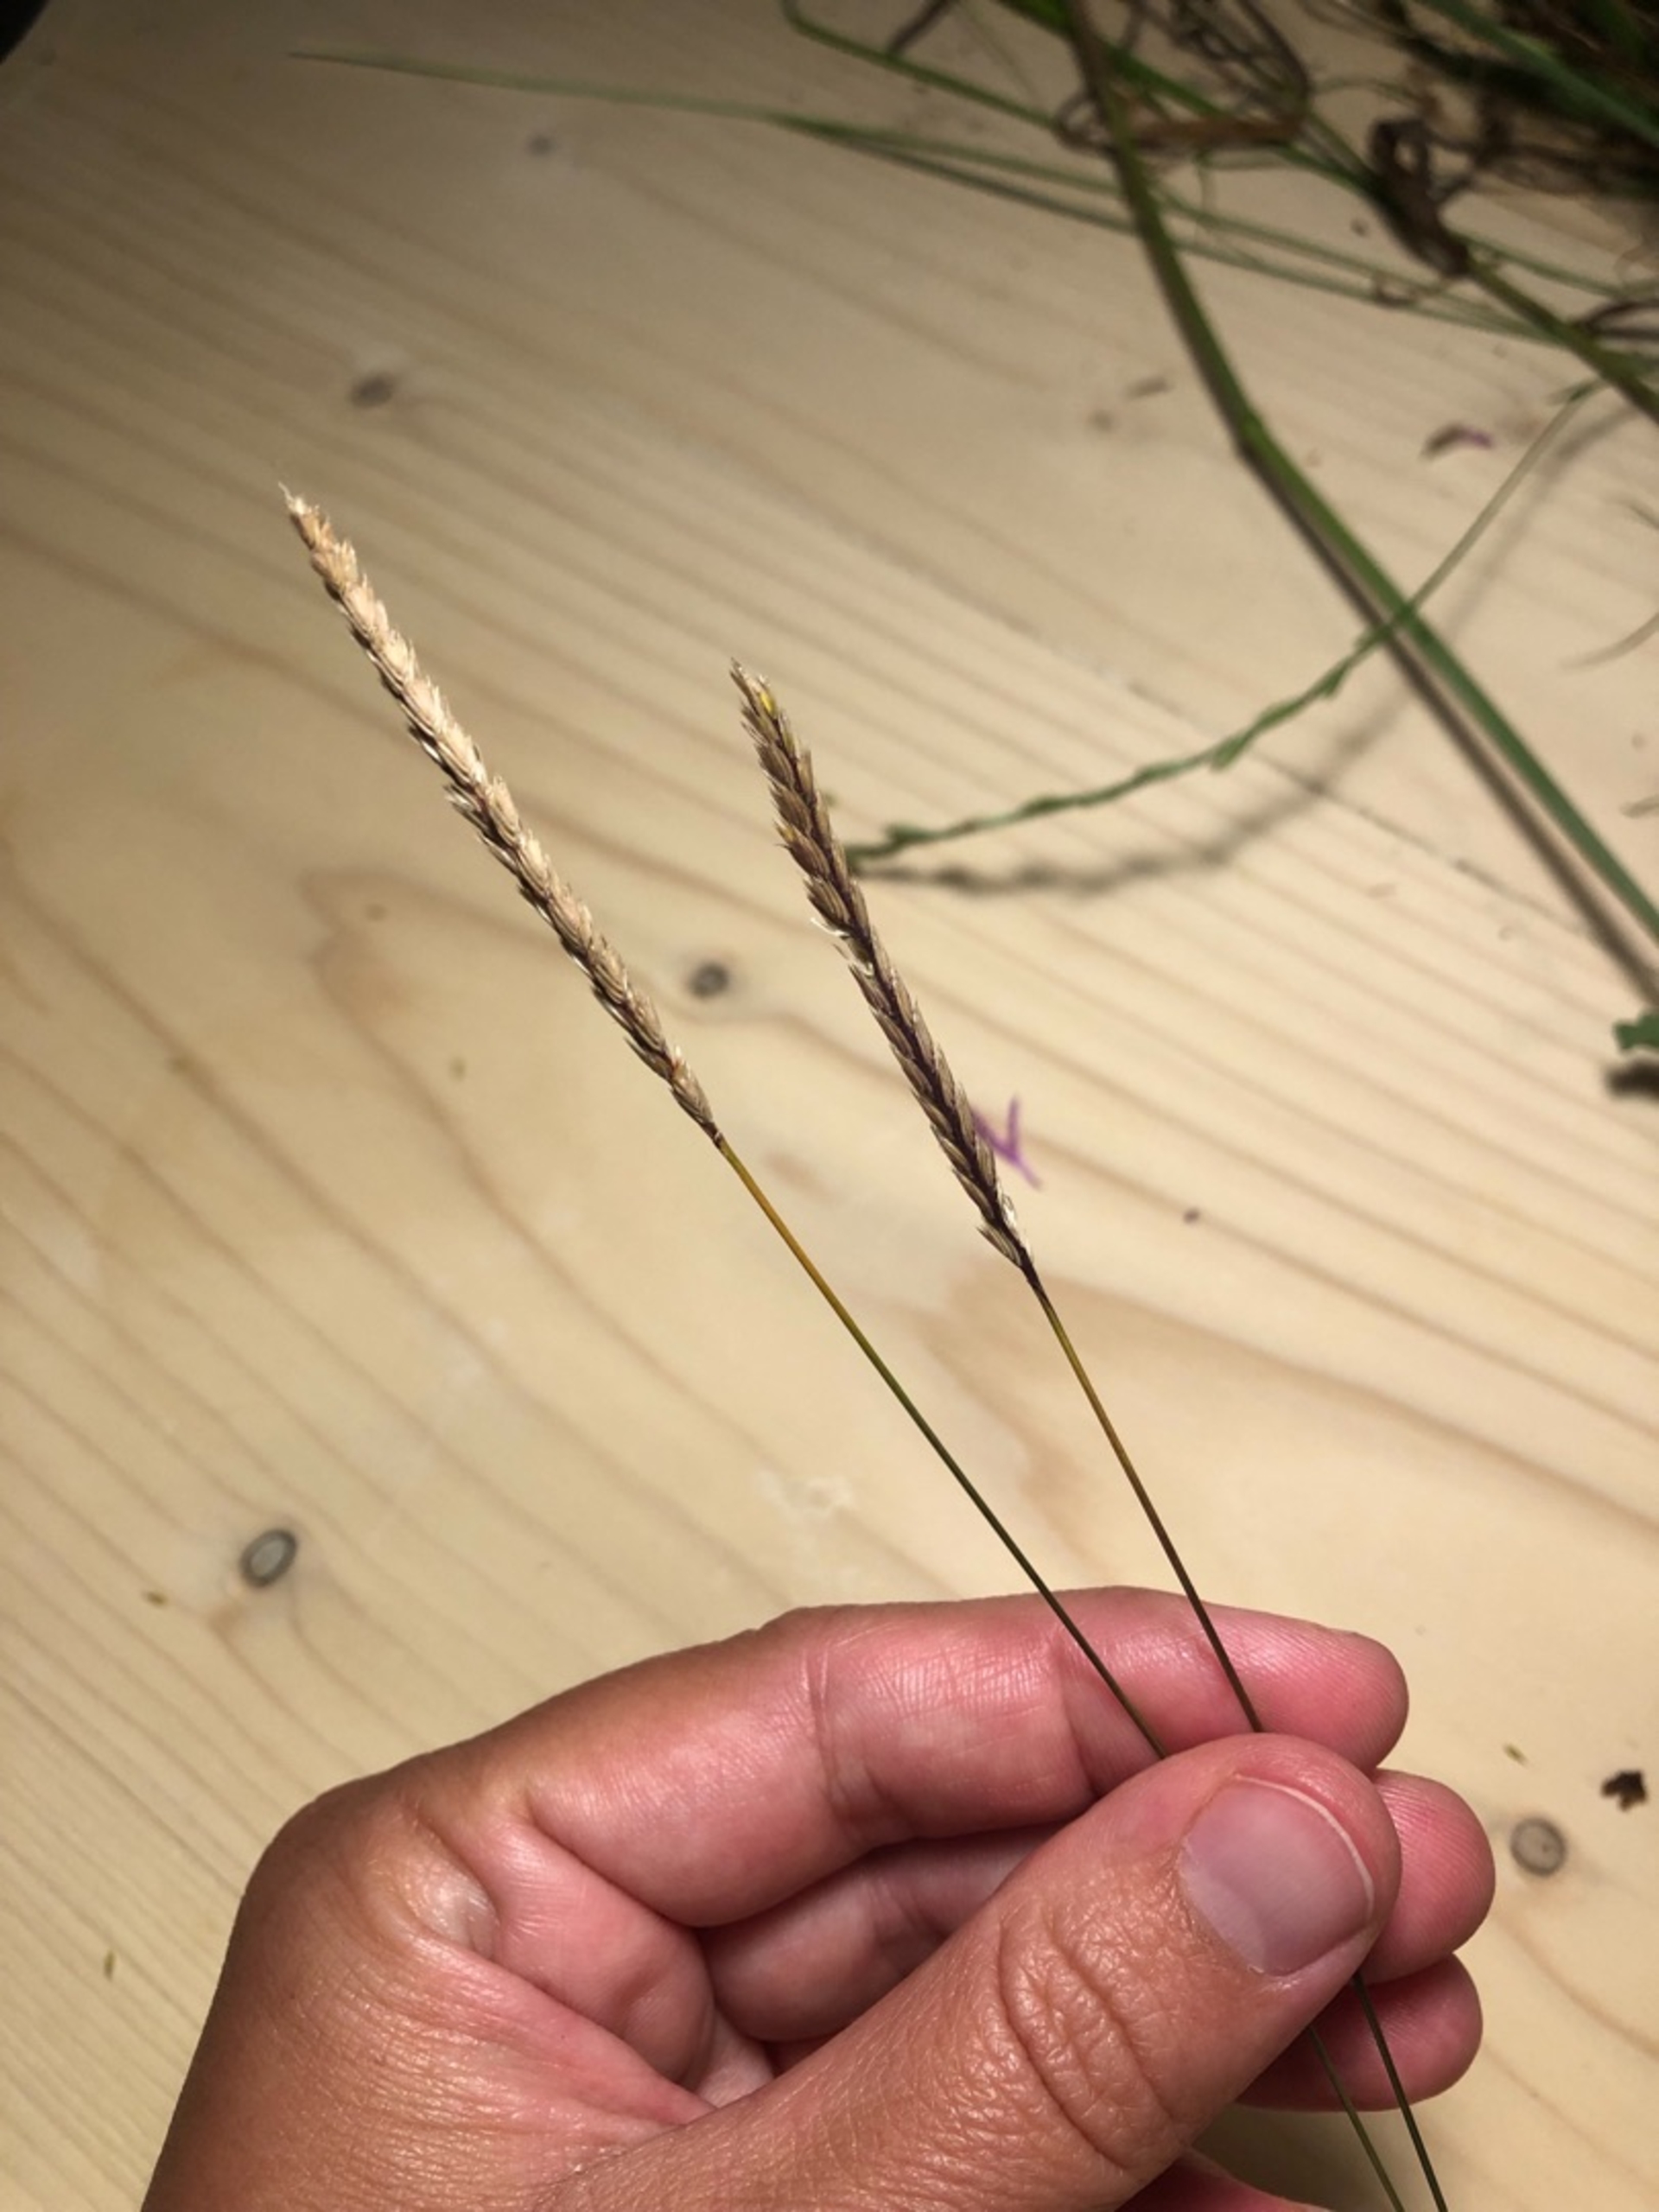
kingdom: Plantae
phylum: Tracheophyta
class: Liliopsida
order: Poales
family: Poaceae
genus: Cynosurus
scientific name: Cynosurus cristatus
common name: Kamgræs
